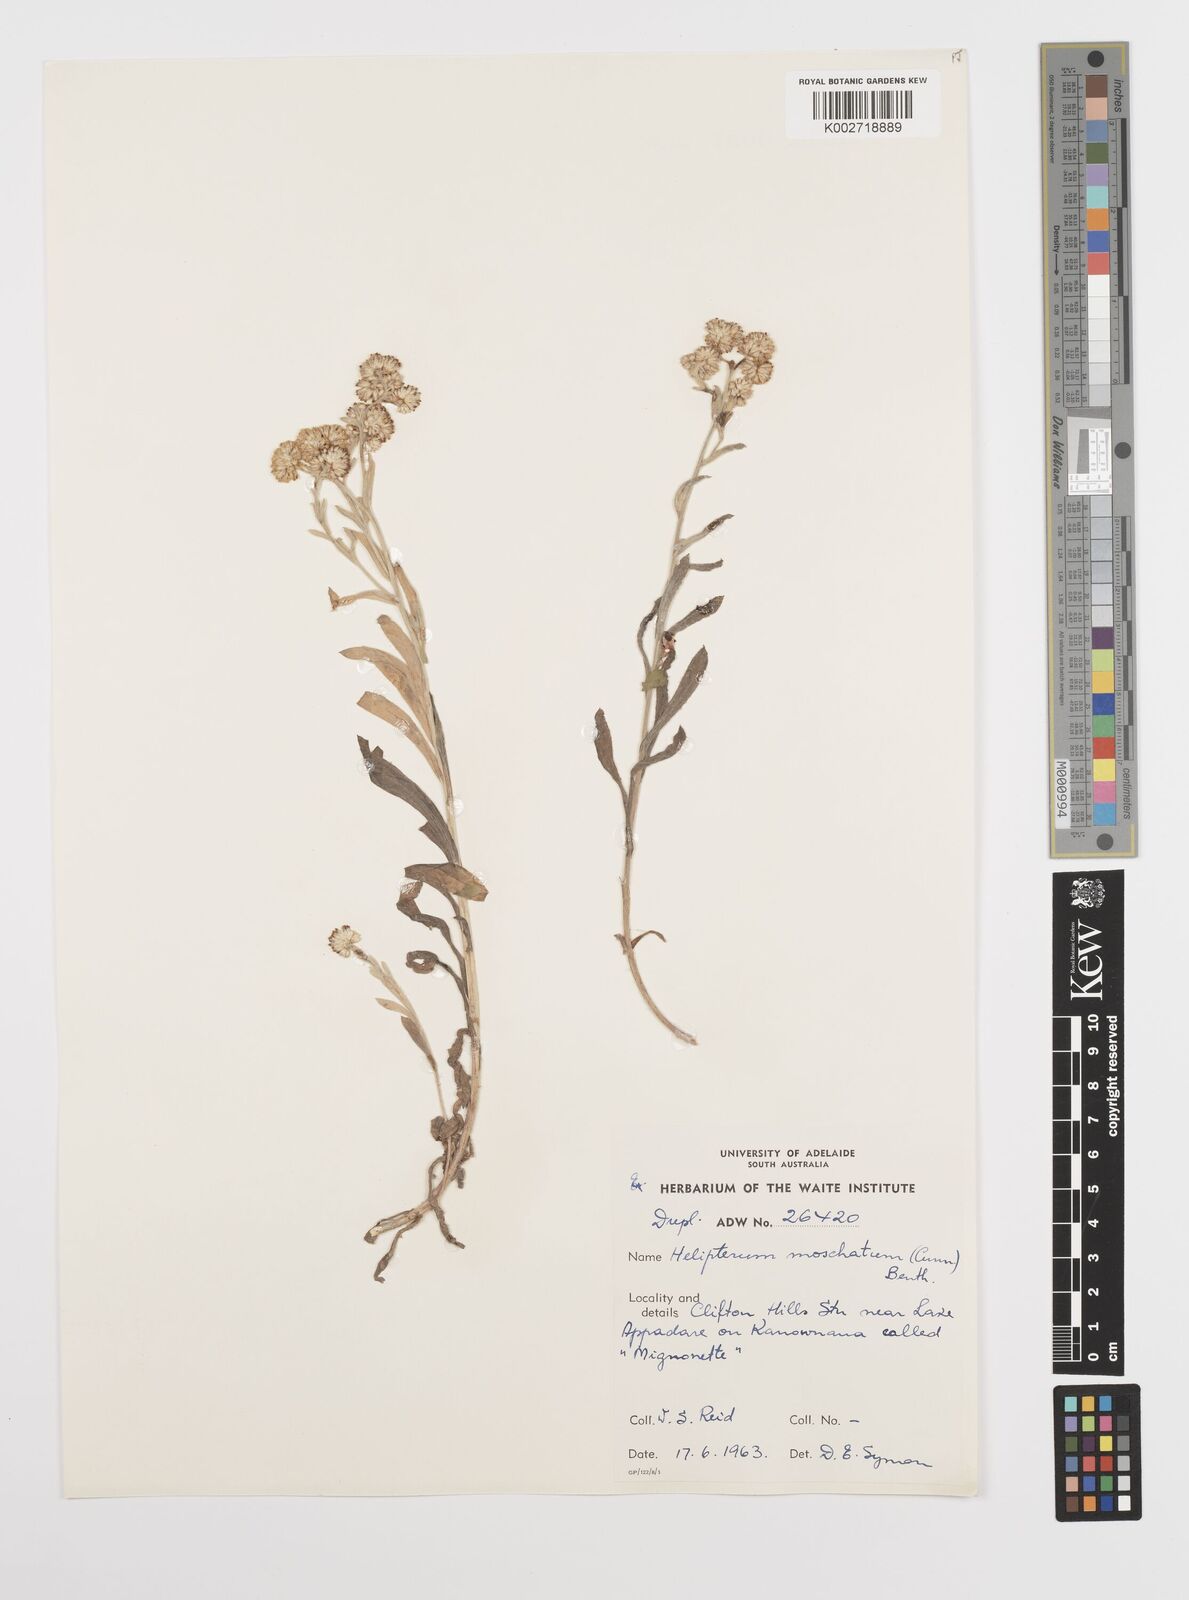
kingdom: Plantae
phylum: Tracheophyta
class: Magnoliopsida
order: Asterales
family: Asteraceae
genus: Rhodanthe
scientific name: Rhodanthe moschata
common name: Musk sunray
